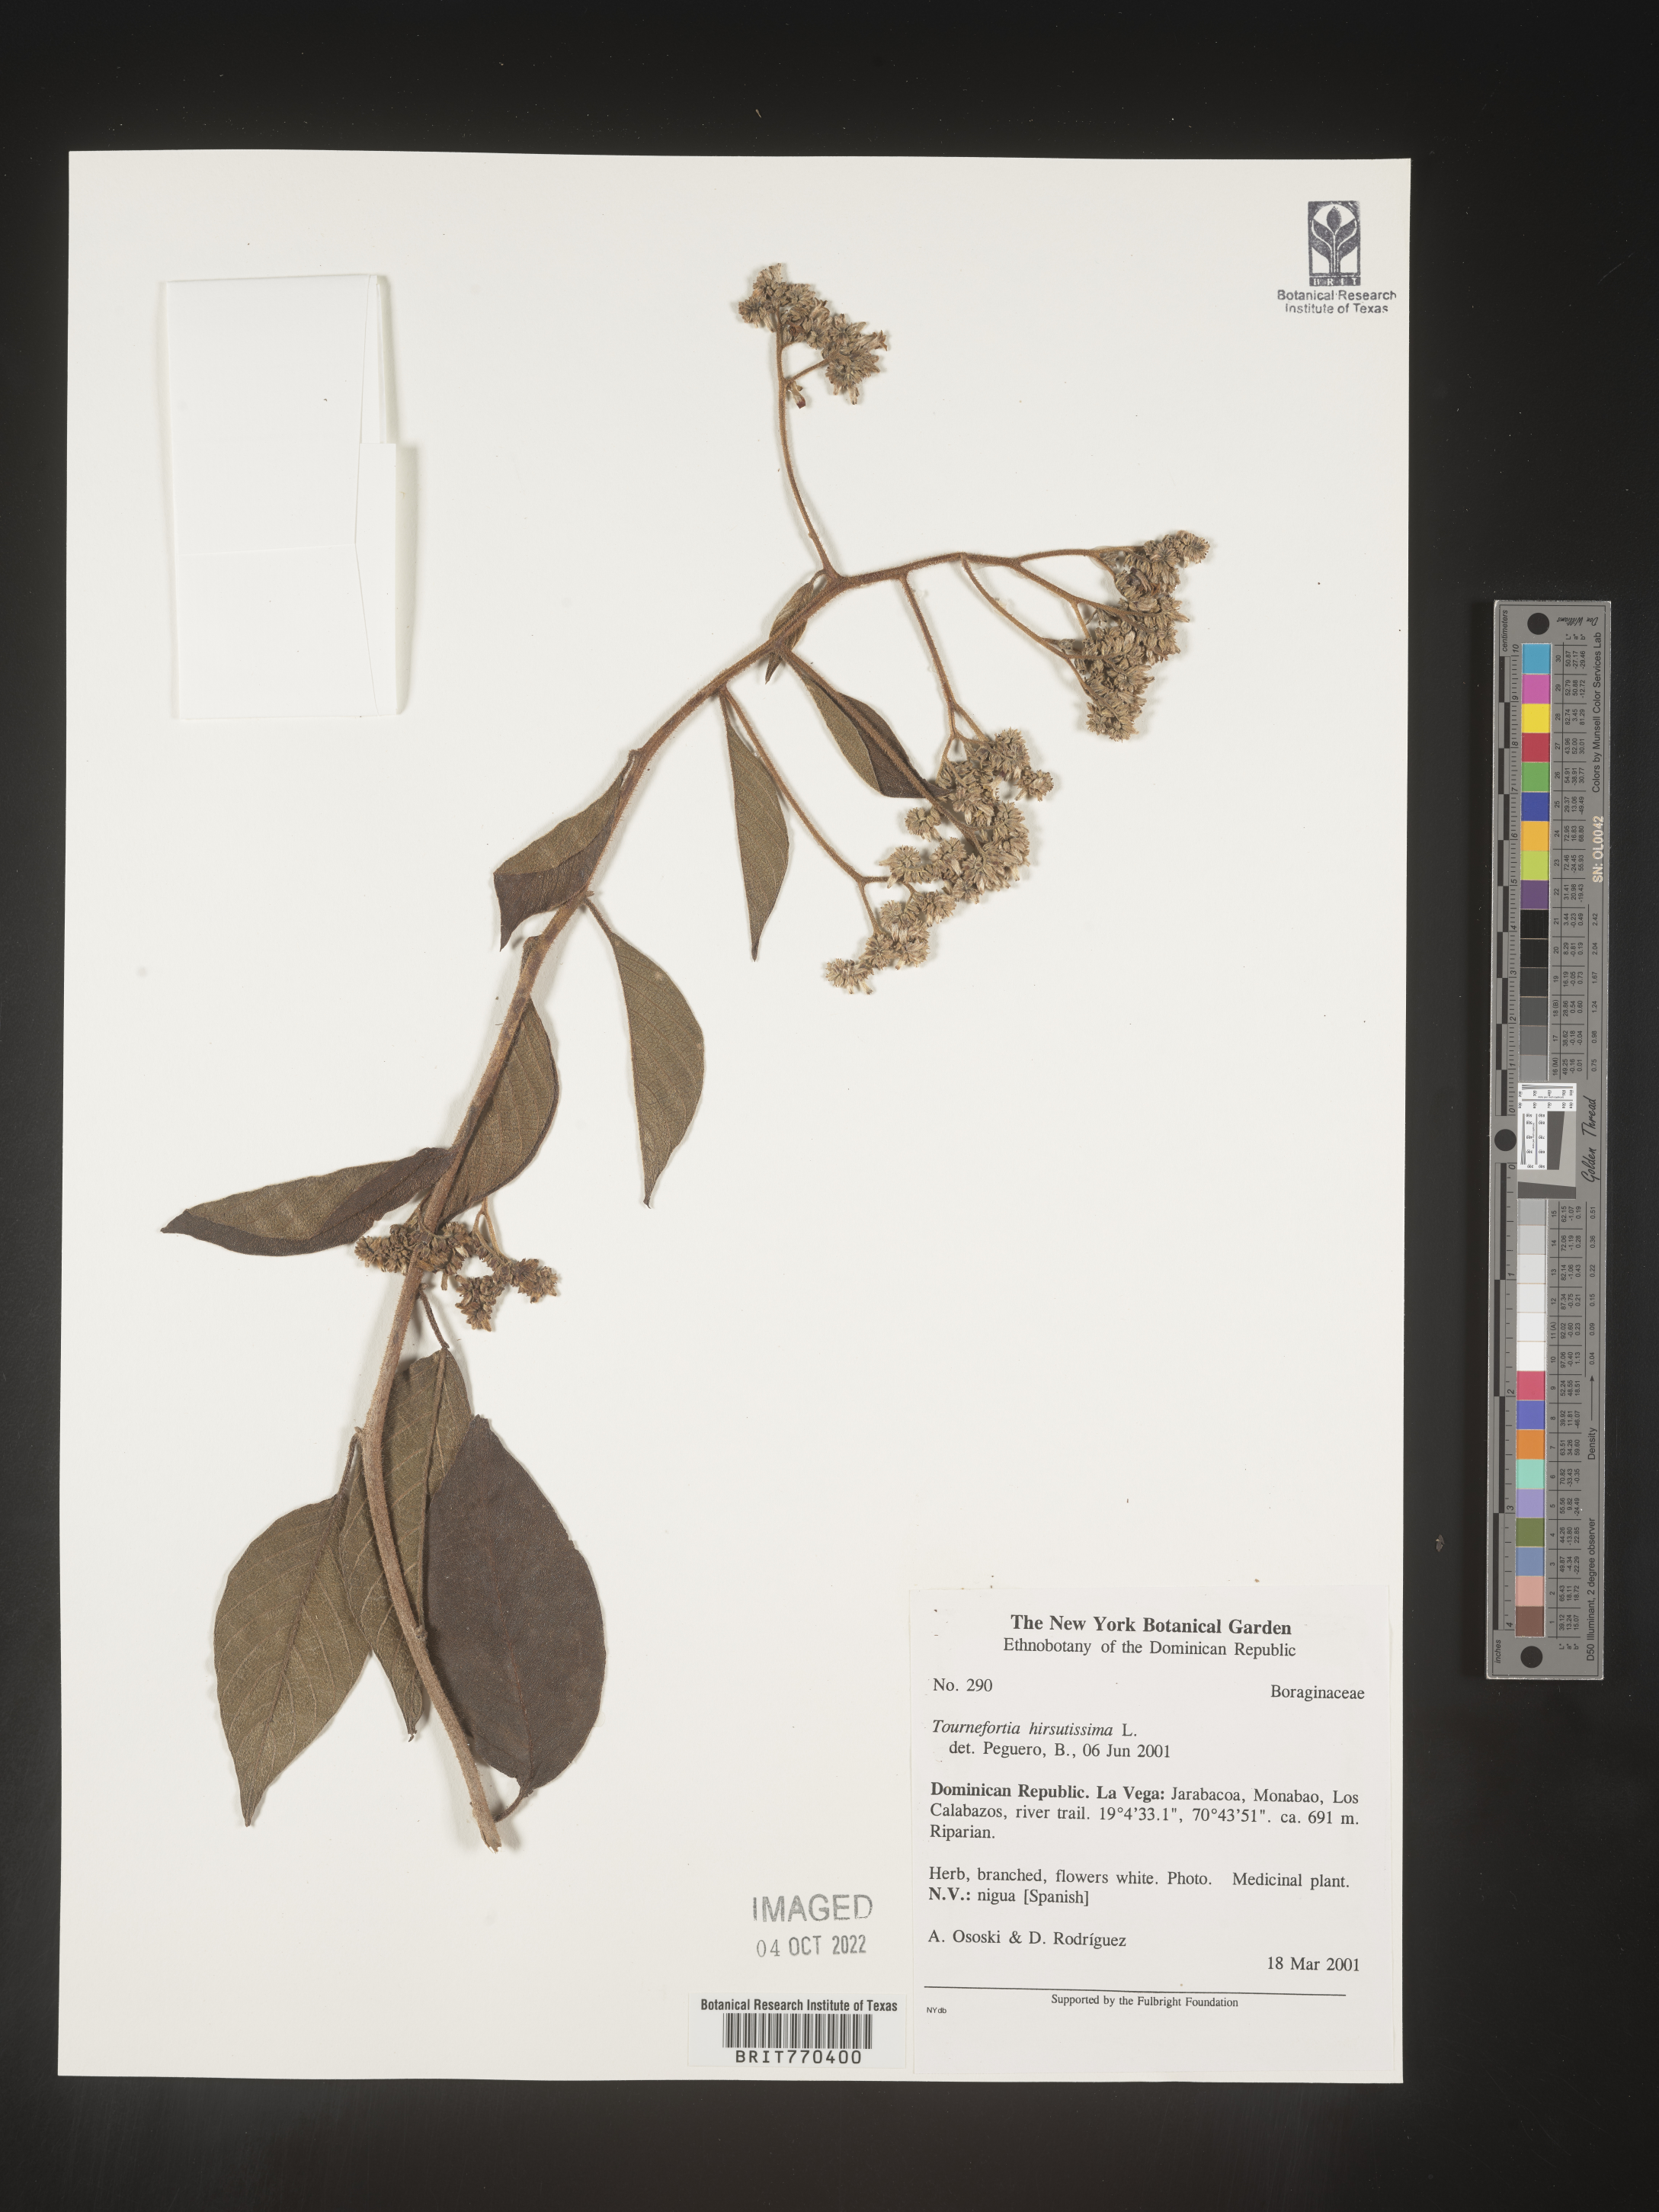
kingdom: Plantae
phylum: Tracheophyta
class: Magnoliopsida
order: Boraginales
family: Heliotropiaceae
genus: Tournefortia
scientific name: Tournefortia
